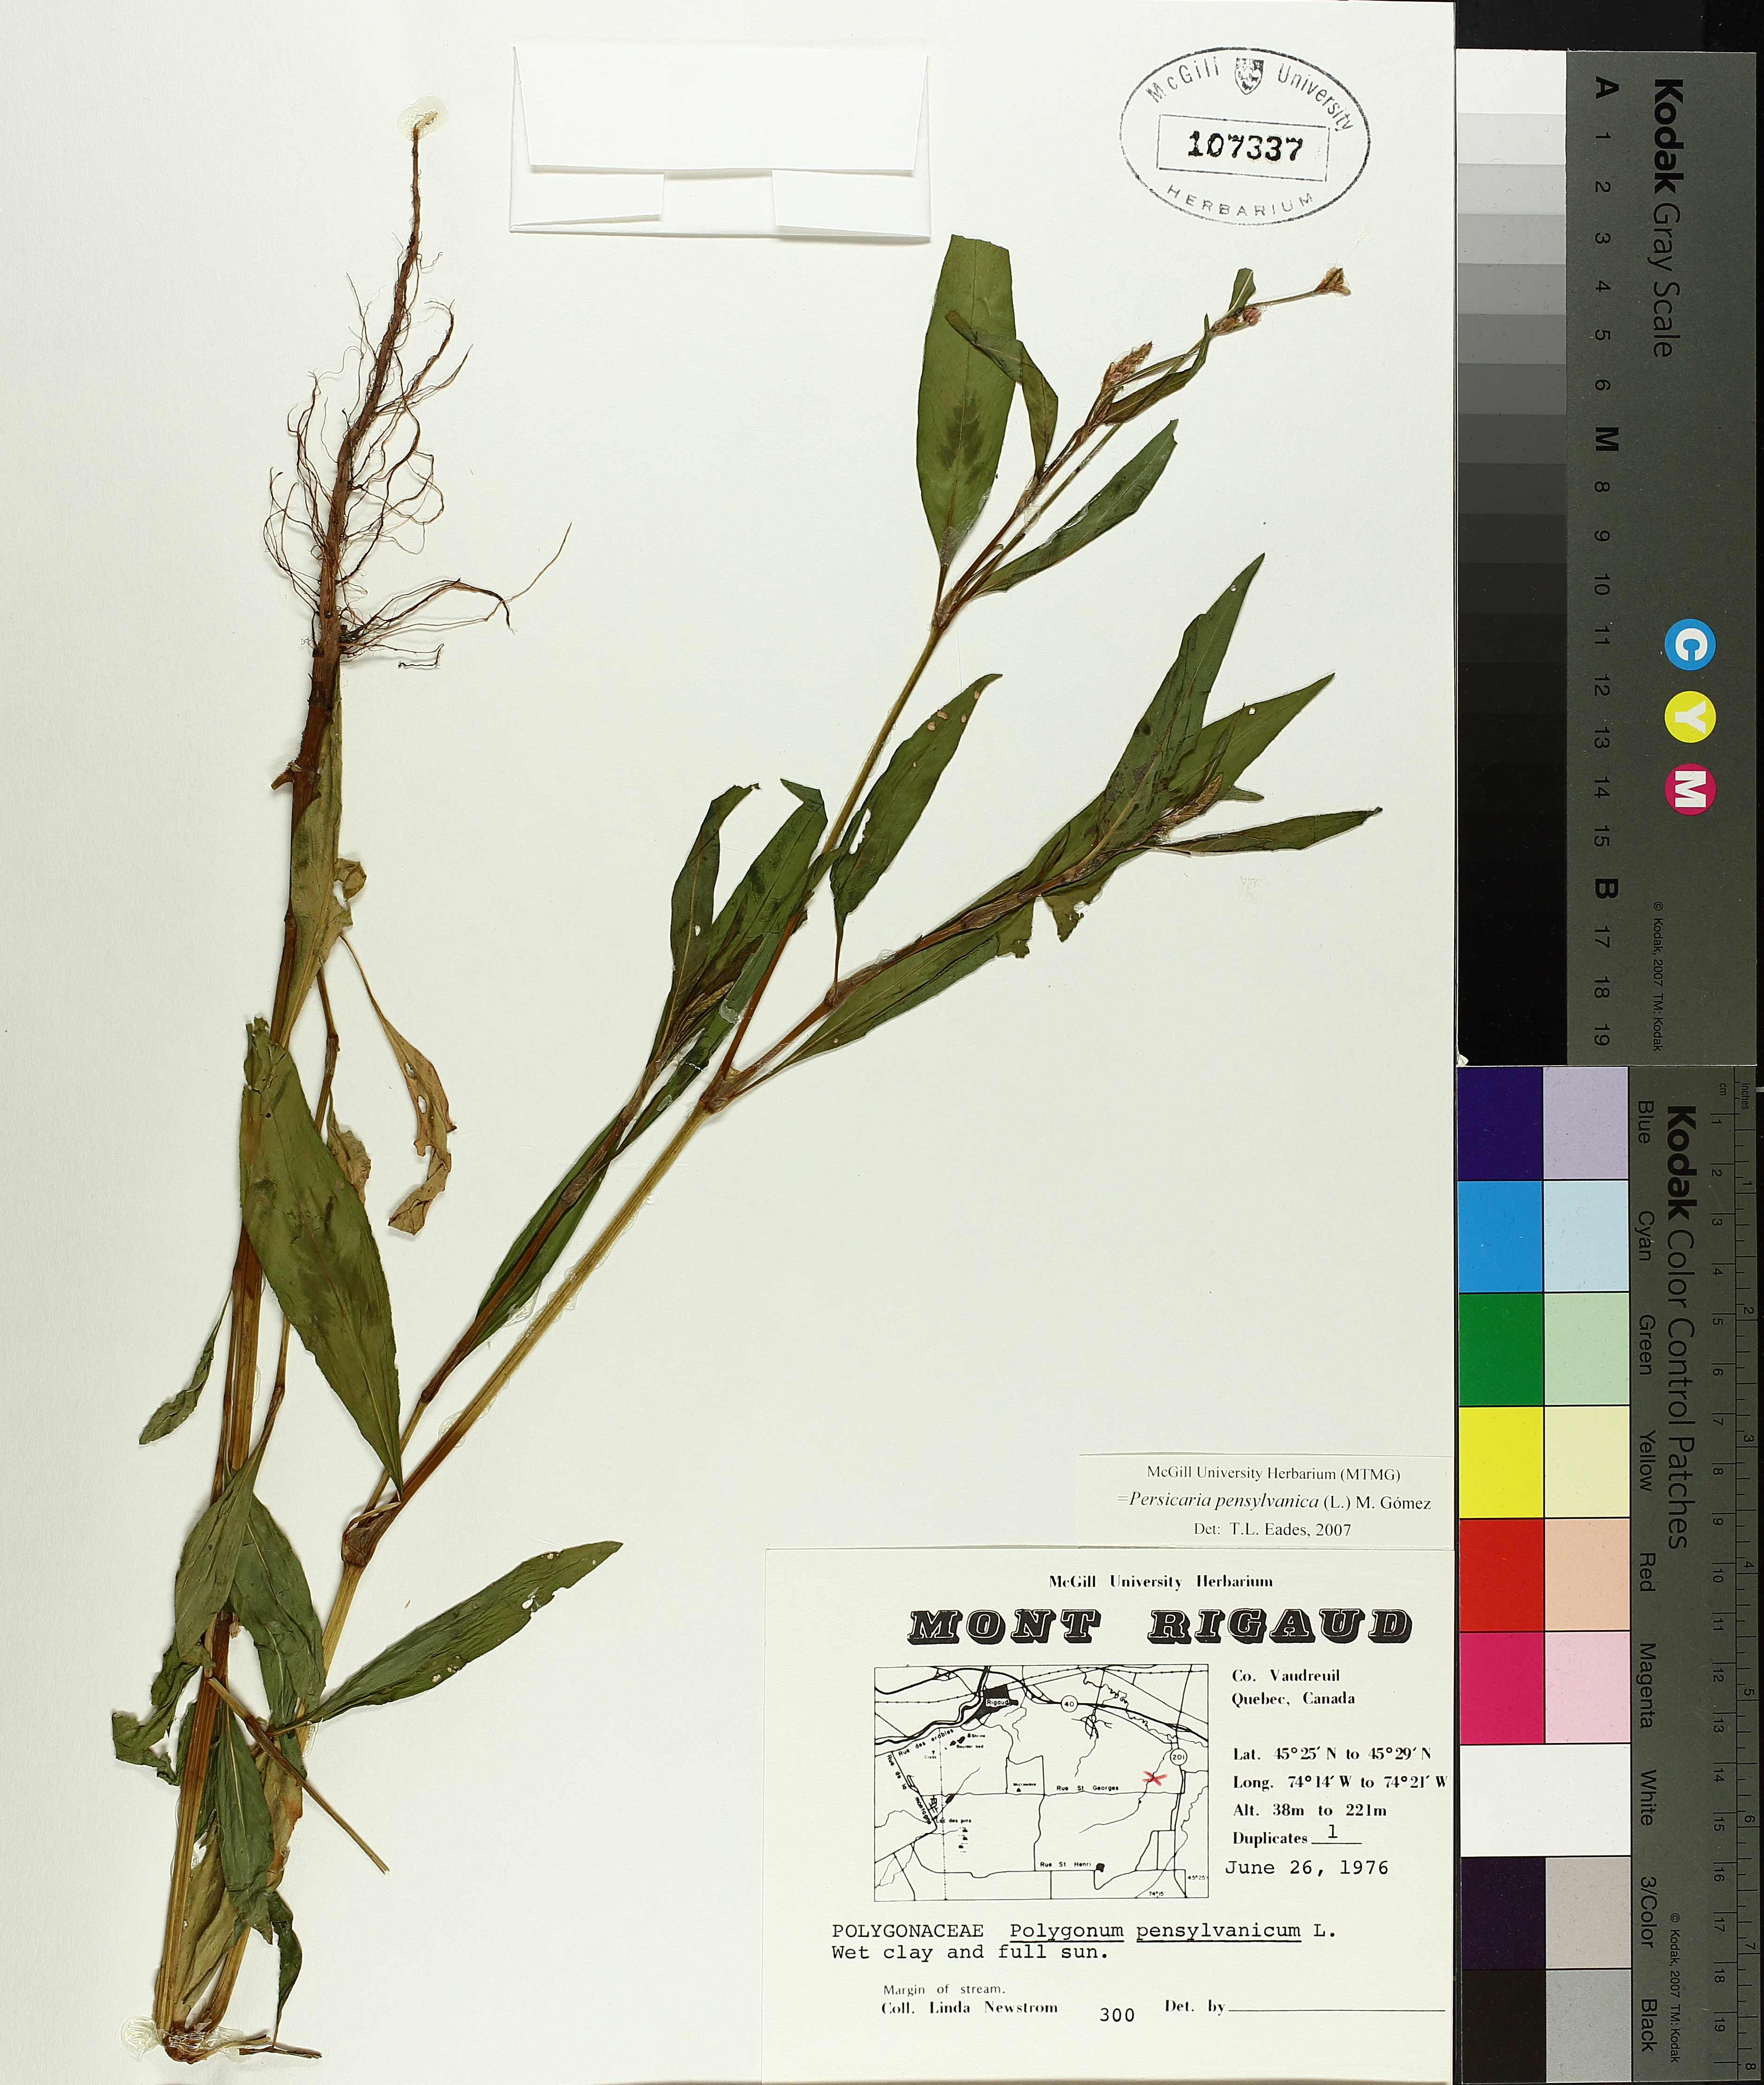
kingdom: Plantae
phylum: Tracheophyta
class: Magnoliopsida
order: Caryophyllales
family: Polygonaceae
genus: Persicaria
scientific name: Persicaria bungeana
